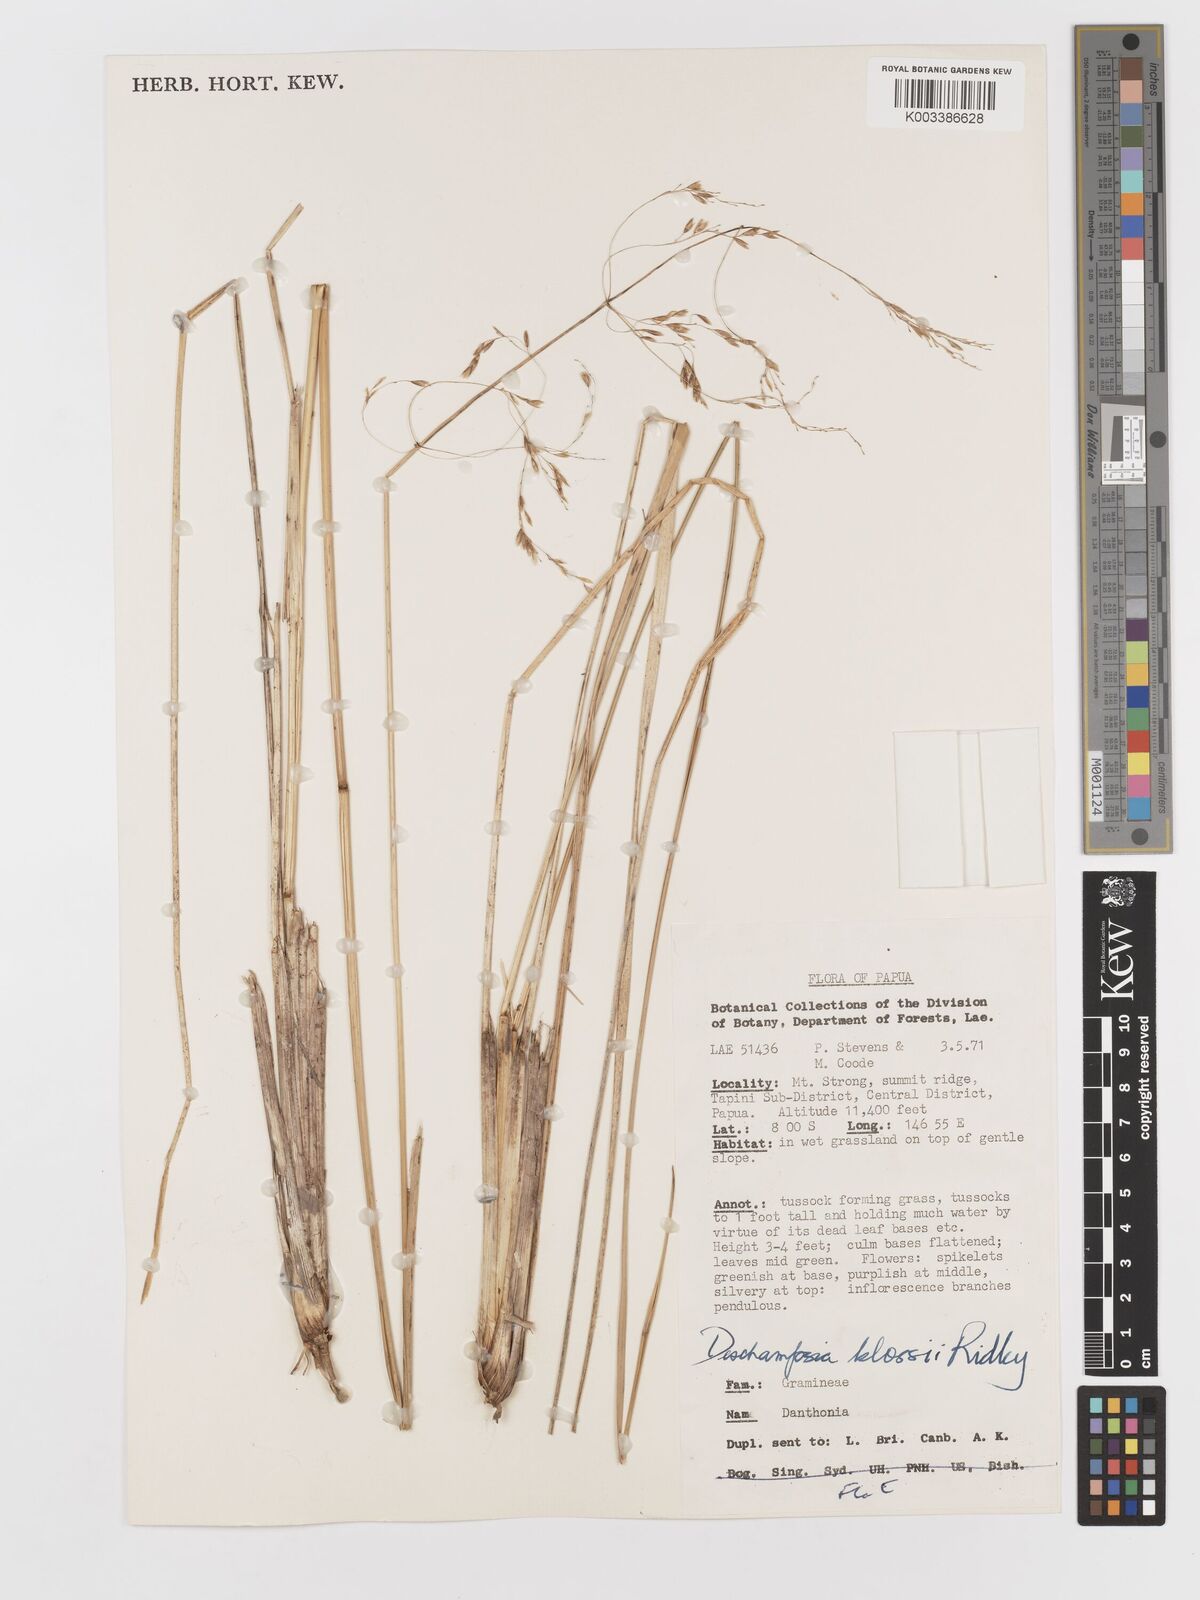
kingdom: Plantae
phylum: Tracheophyta
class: Liliopsida
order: Poales
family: Poaceae
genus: Deschampsia
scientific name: Deschampsia klossii
